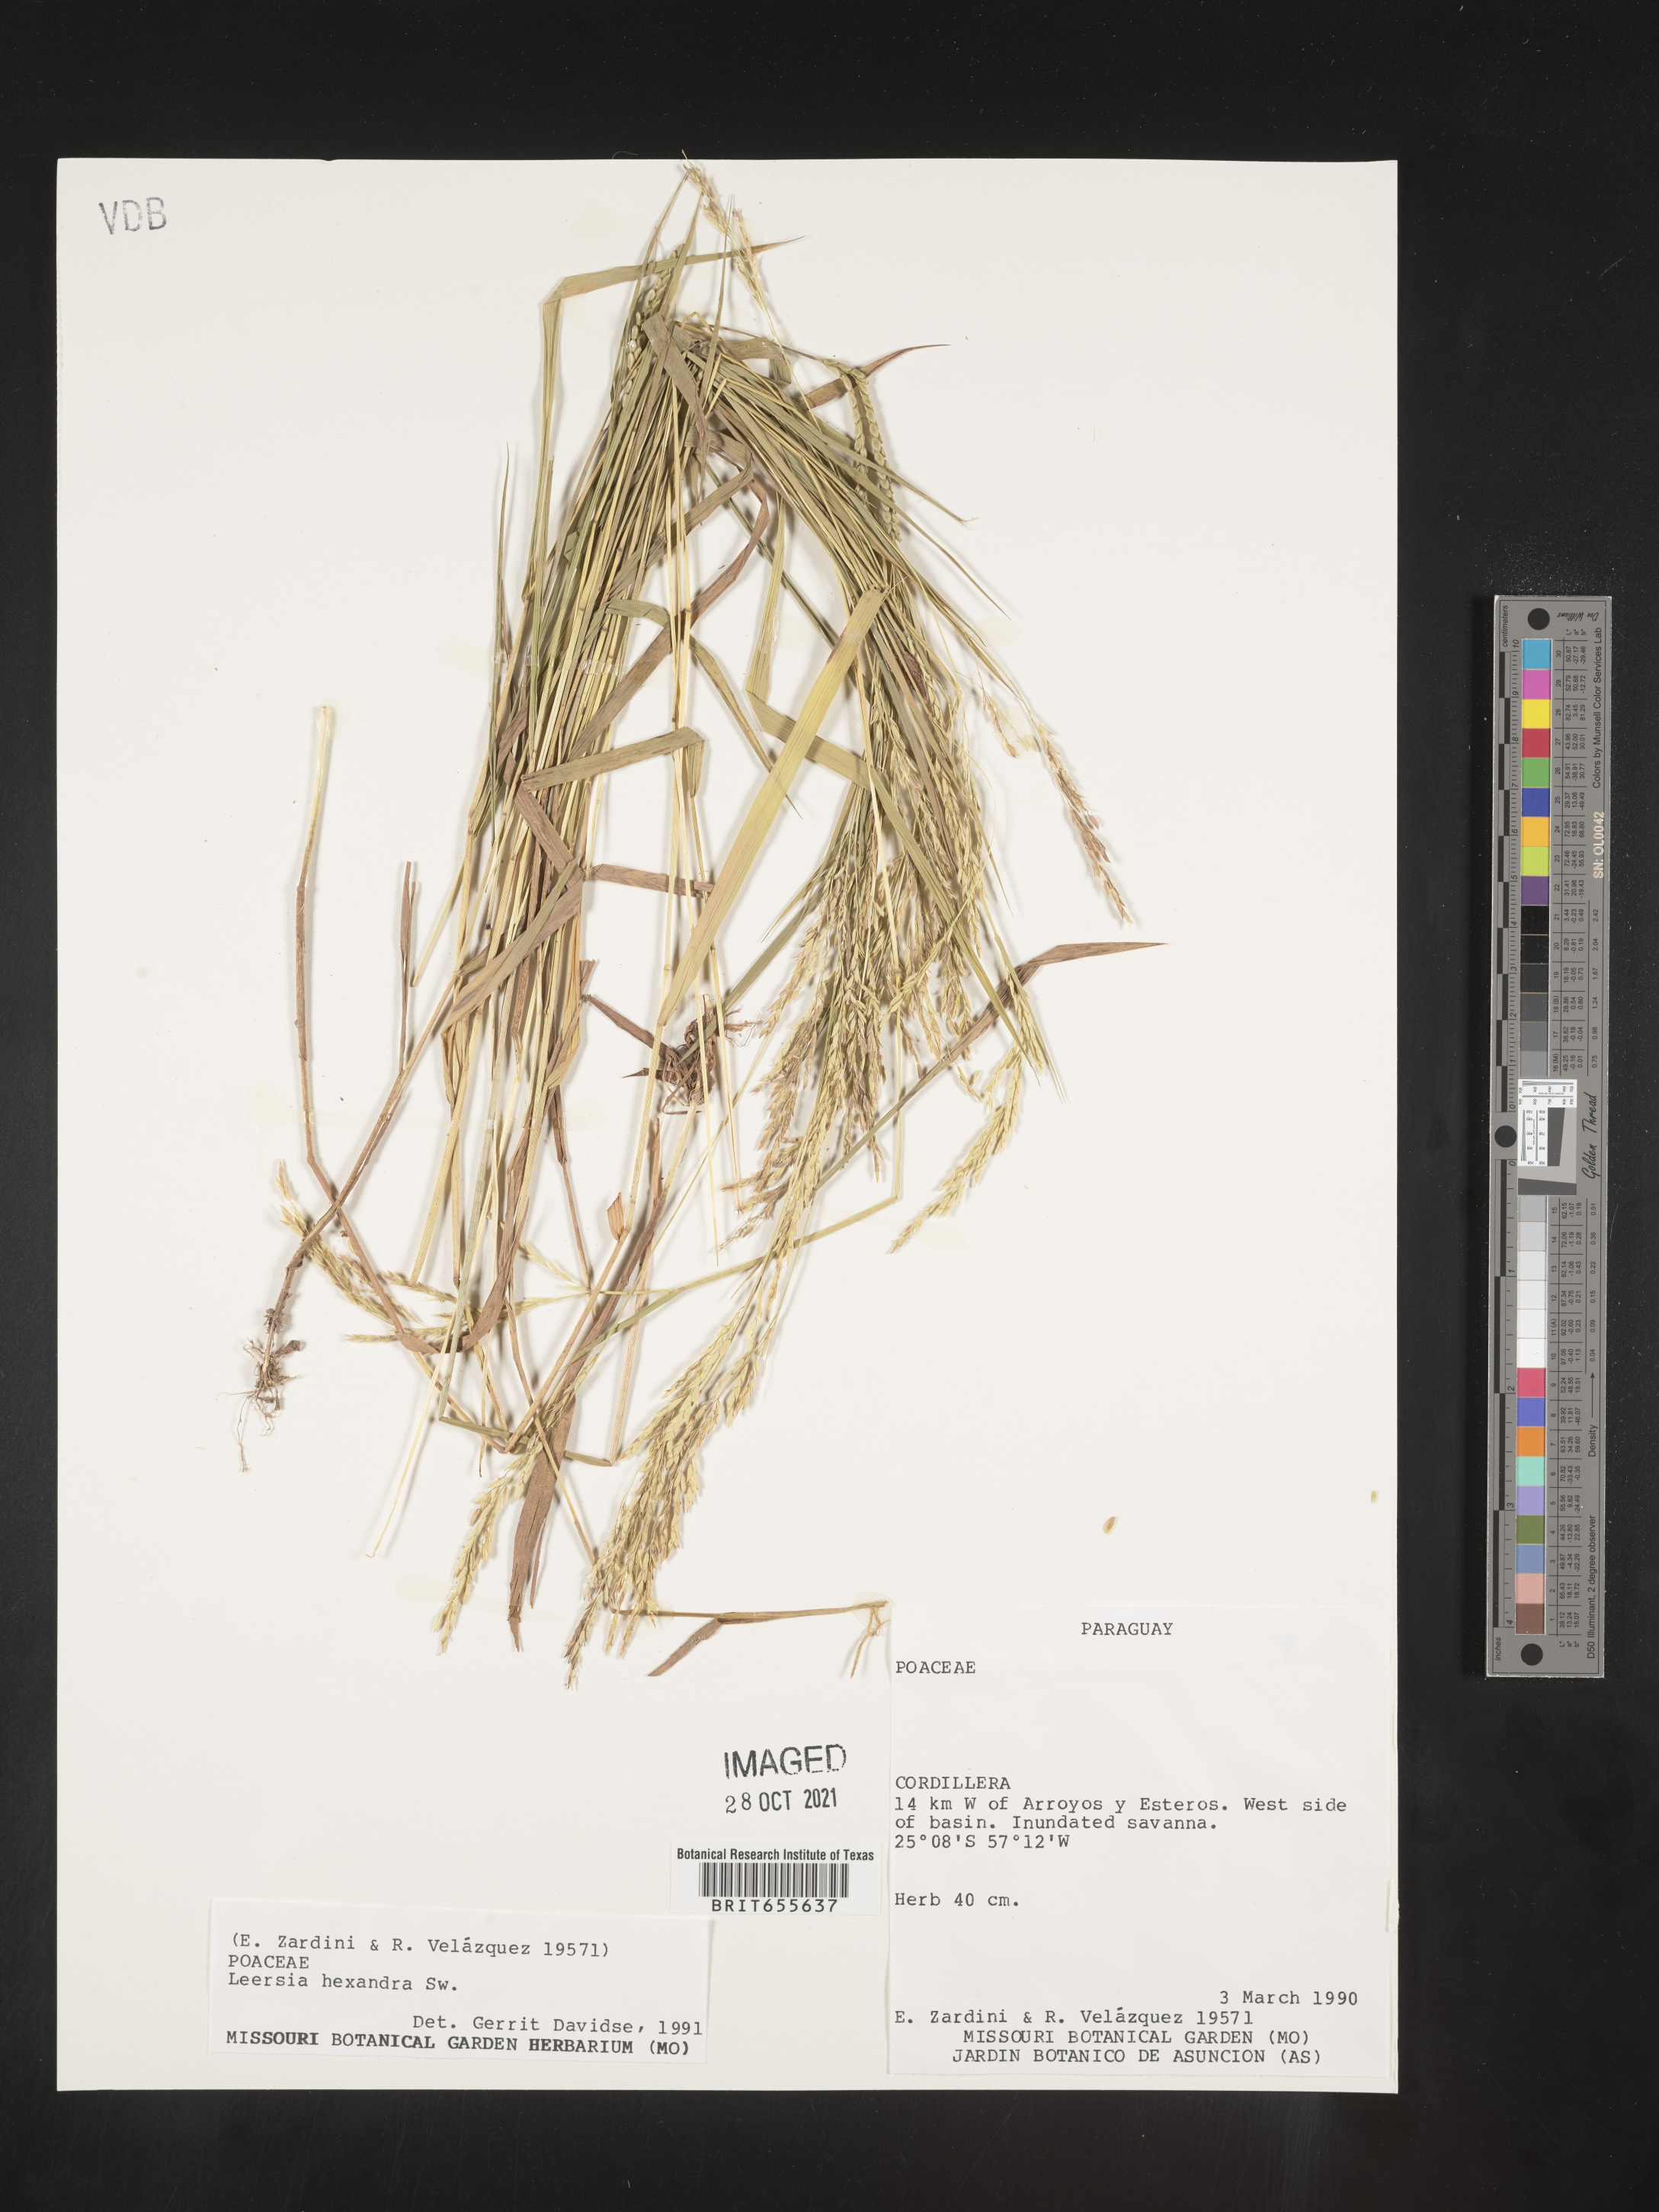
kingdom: Plantae
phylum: Tracheophyta
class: Liliopsida
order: Poales
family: Poaceae
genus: Leersia
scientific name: Leersia
